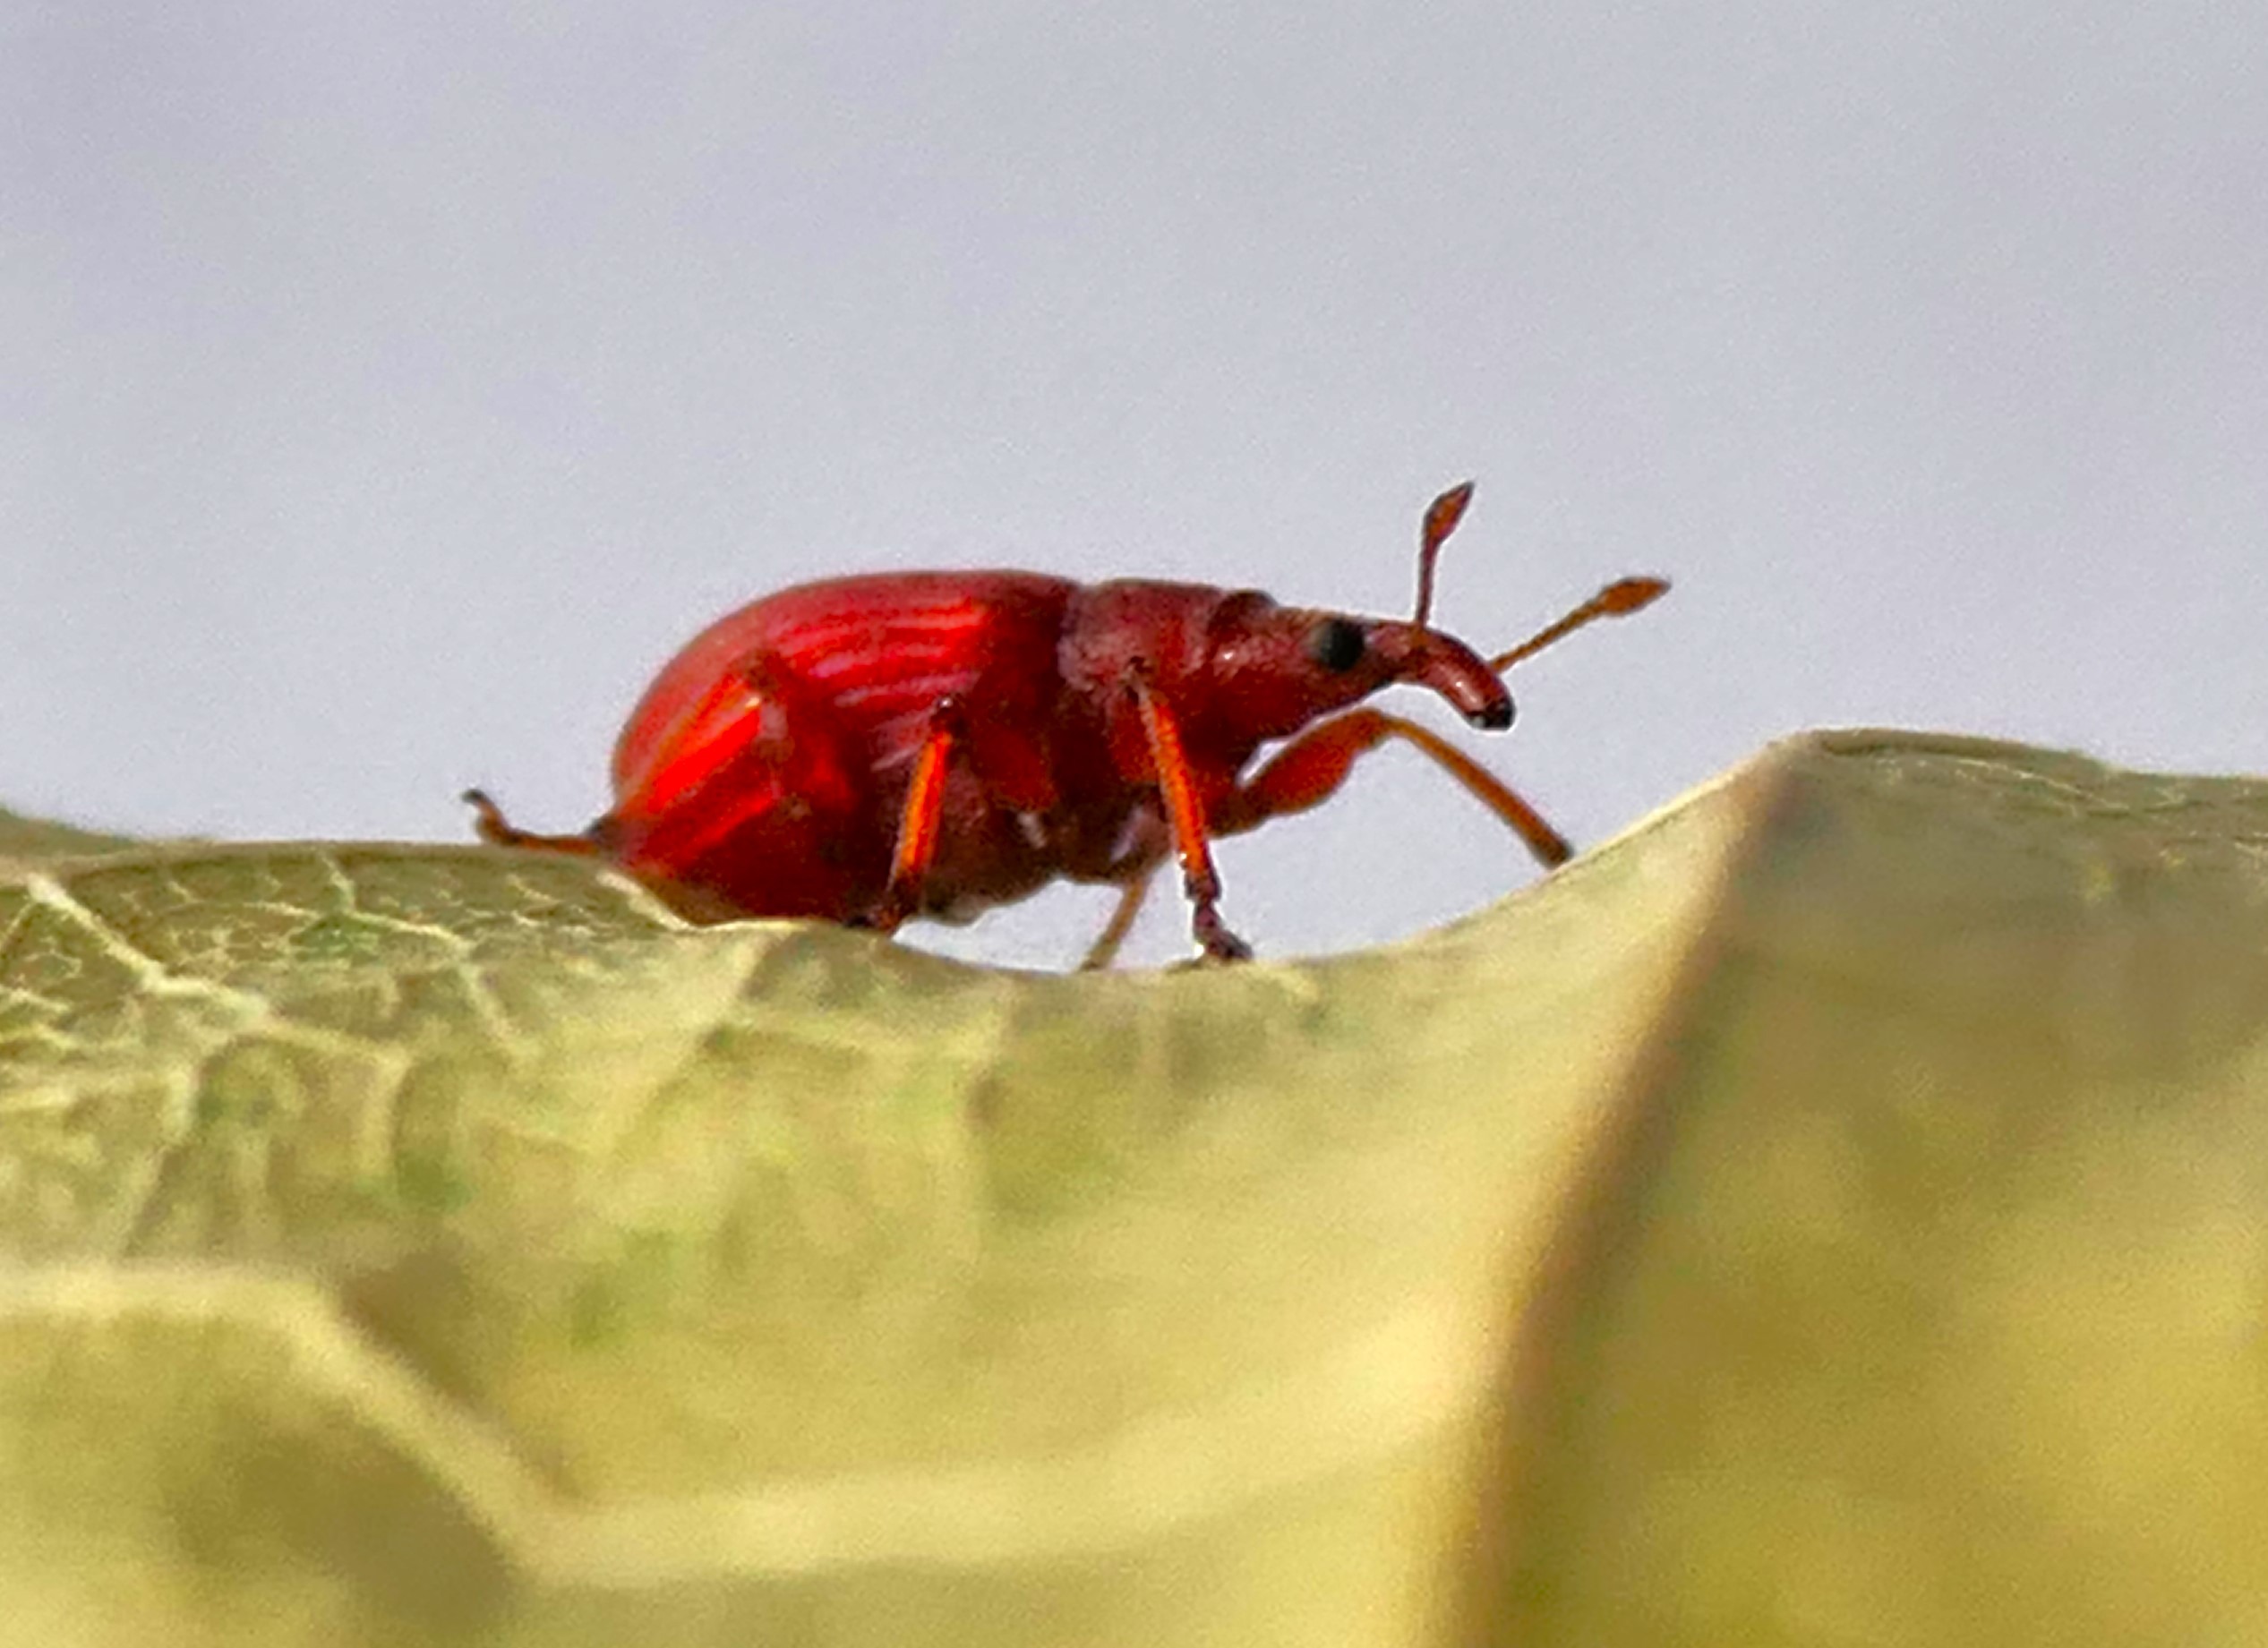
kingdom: Animalia
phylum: Arthropoda
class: Insecta
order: Coleoptera
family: Apionidae
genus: Apion
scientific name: Apion frumentarium
